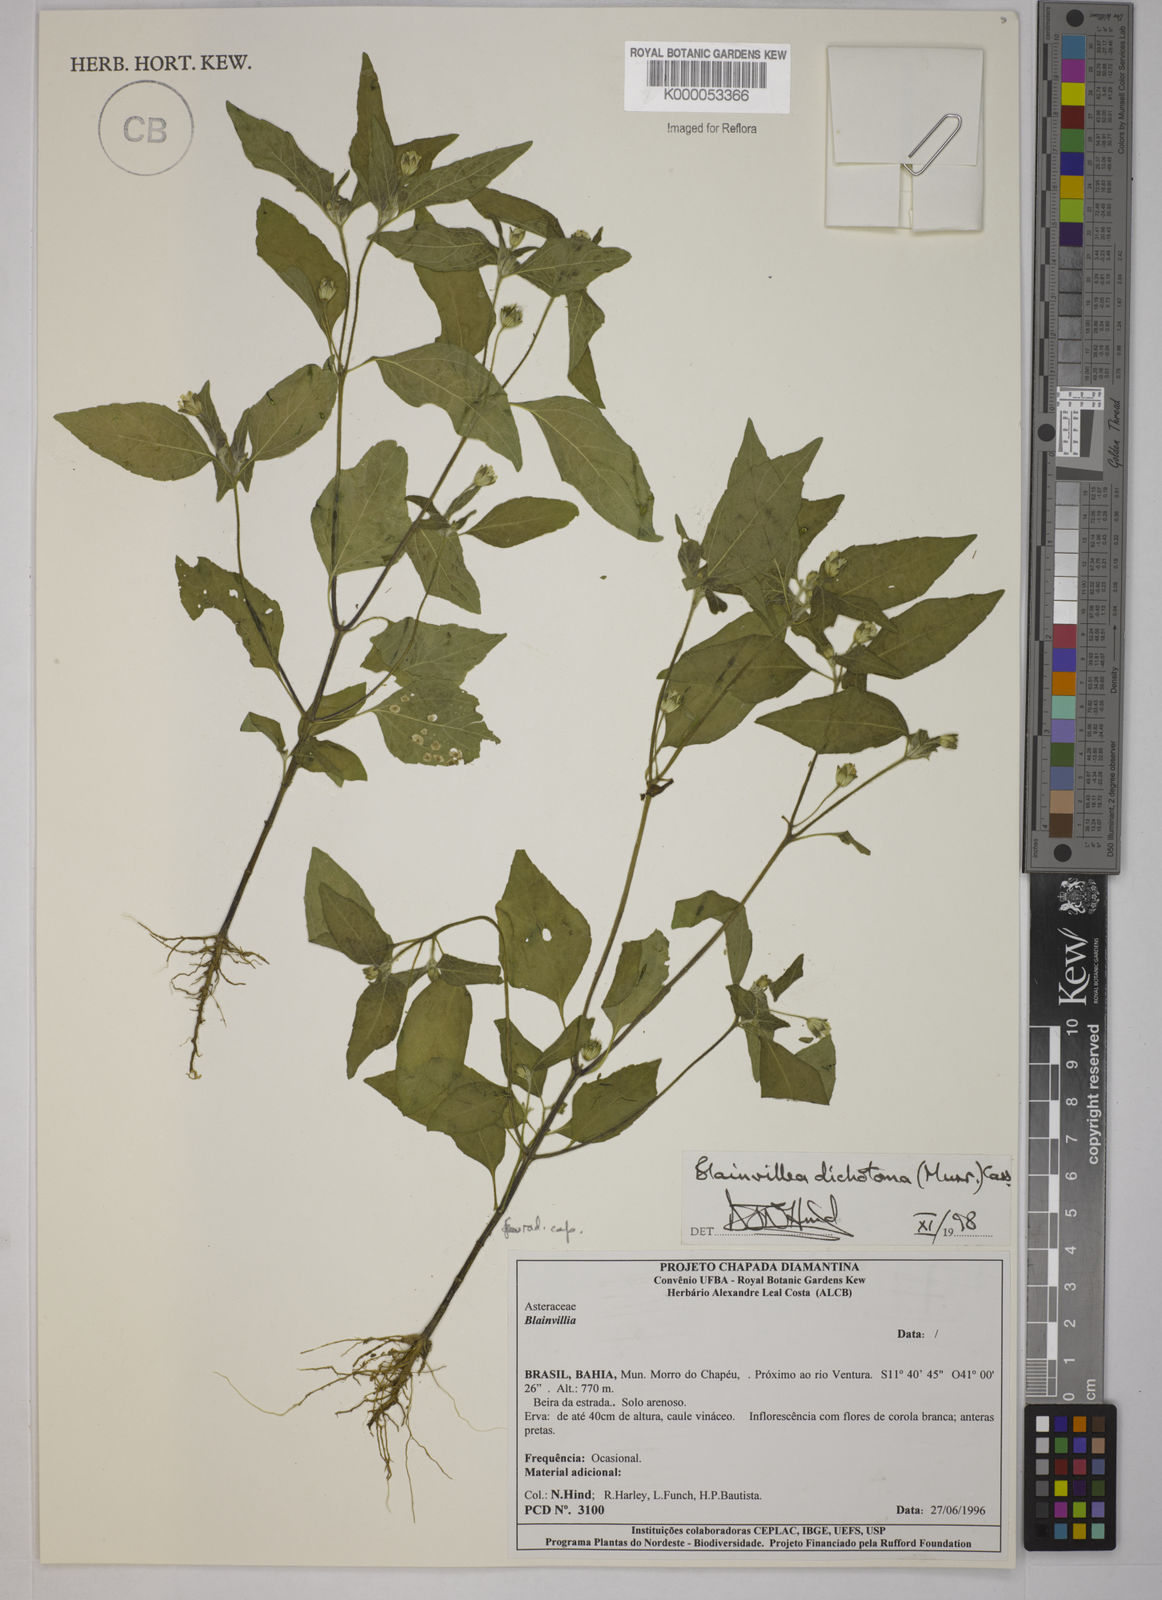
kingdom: Plantae
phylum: Tracheophyta
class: Magnoliopsida
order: Asterales
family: Asteraceae
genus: Blainvillea
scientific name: Blainvillea acmella
